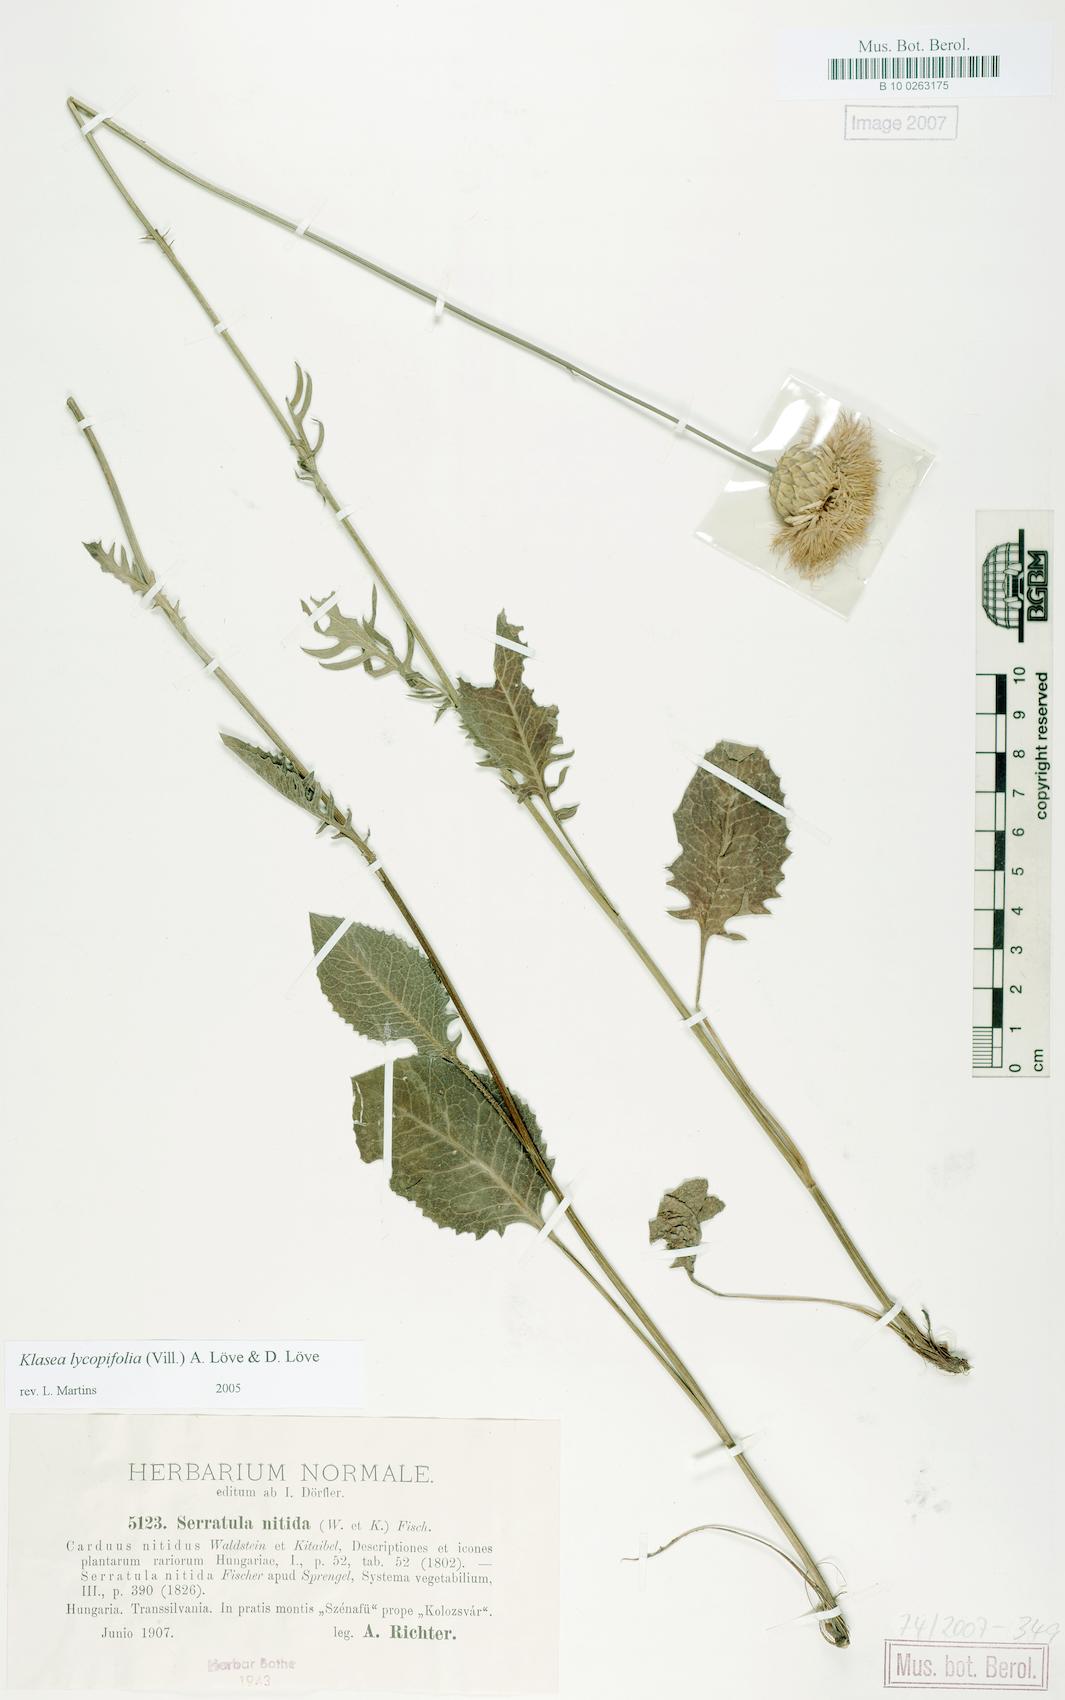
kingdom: Plantae
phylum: Tracheophyta
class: Magnoliopsida
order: Asterales
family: Asteraceae
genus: Klasea
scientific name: Klasea lycopifolia
